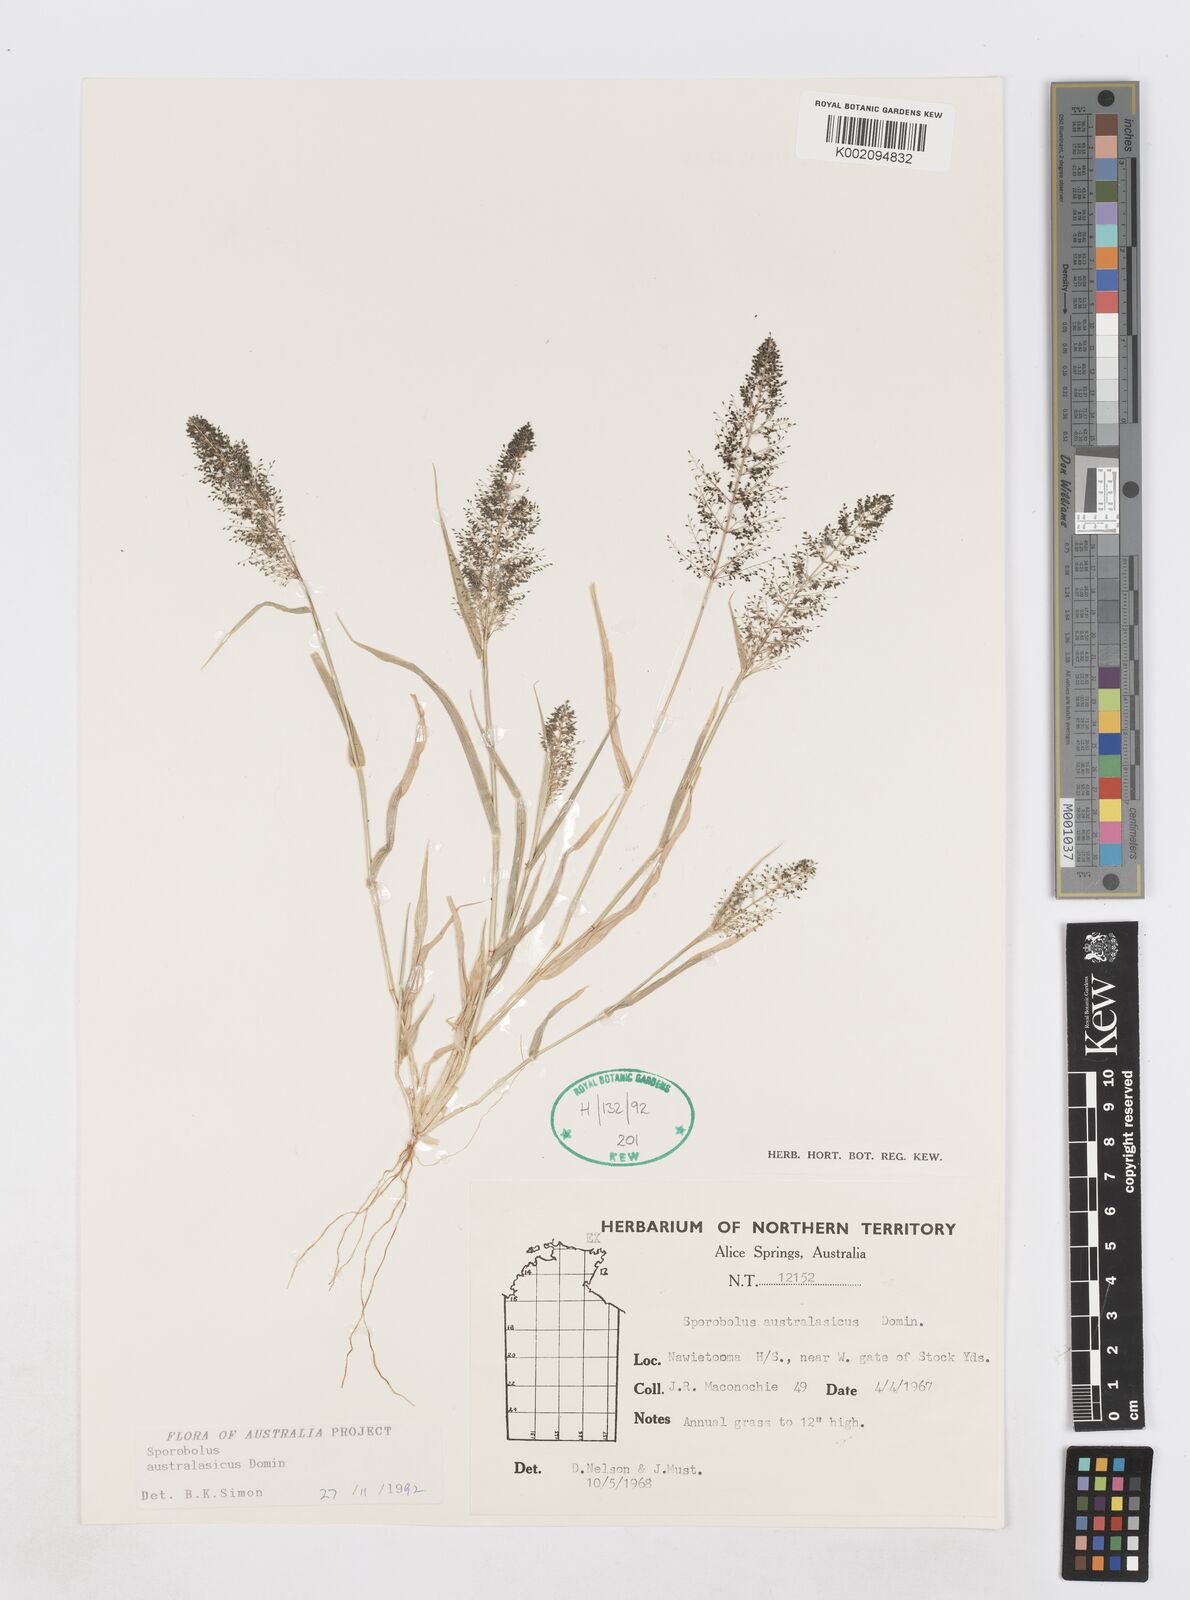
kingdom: Plantae
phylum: Tracheophyta
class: Liliopsida
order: Poales
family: Poaceae
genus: Sporobolus
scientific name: Sporobolus australasicus
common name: Australian dropseed
